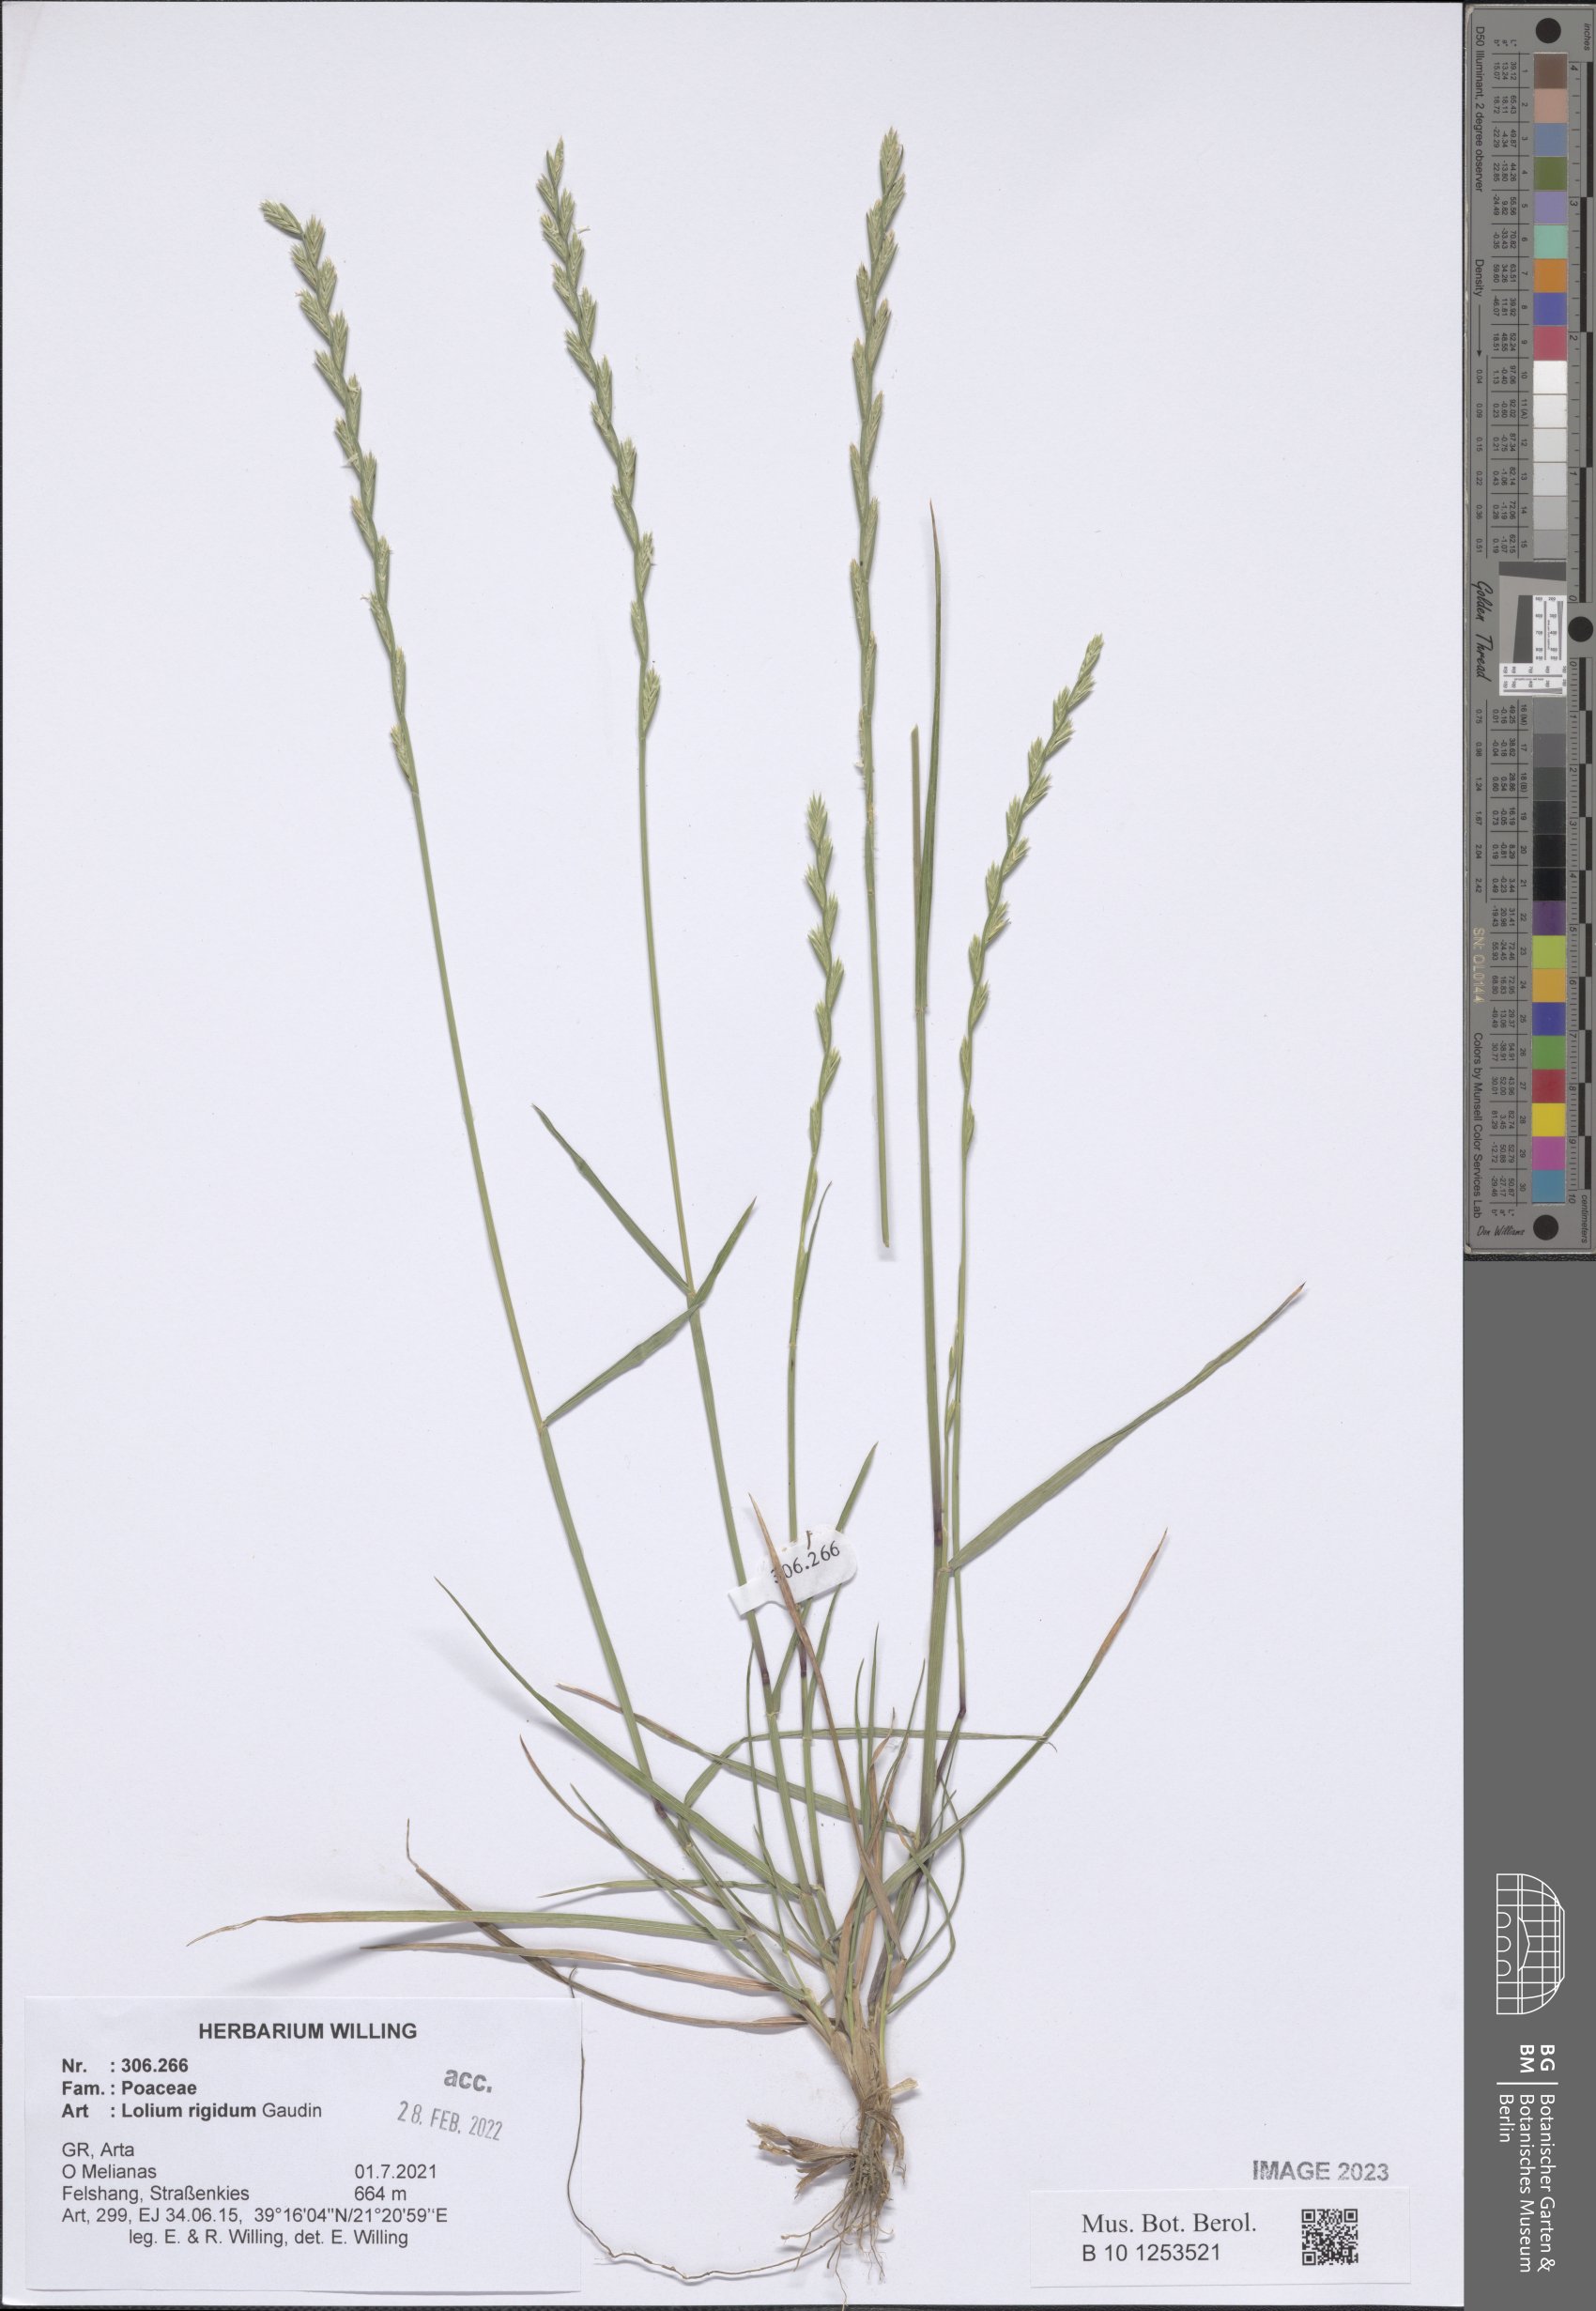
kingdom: Plantae
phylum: Tracheophyta
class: Liliopsida
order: Poales
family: Poaceae
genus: Lolium
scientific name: Lolium rigidum
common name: Wimmera ryegrass
